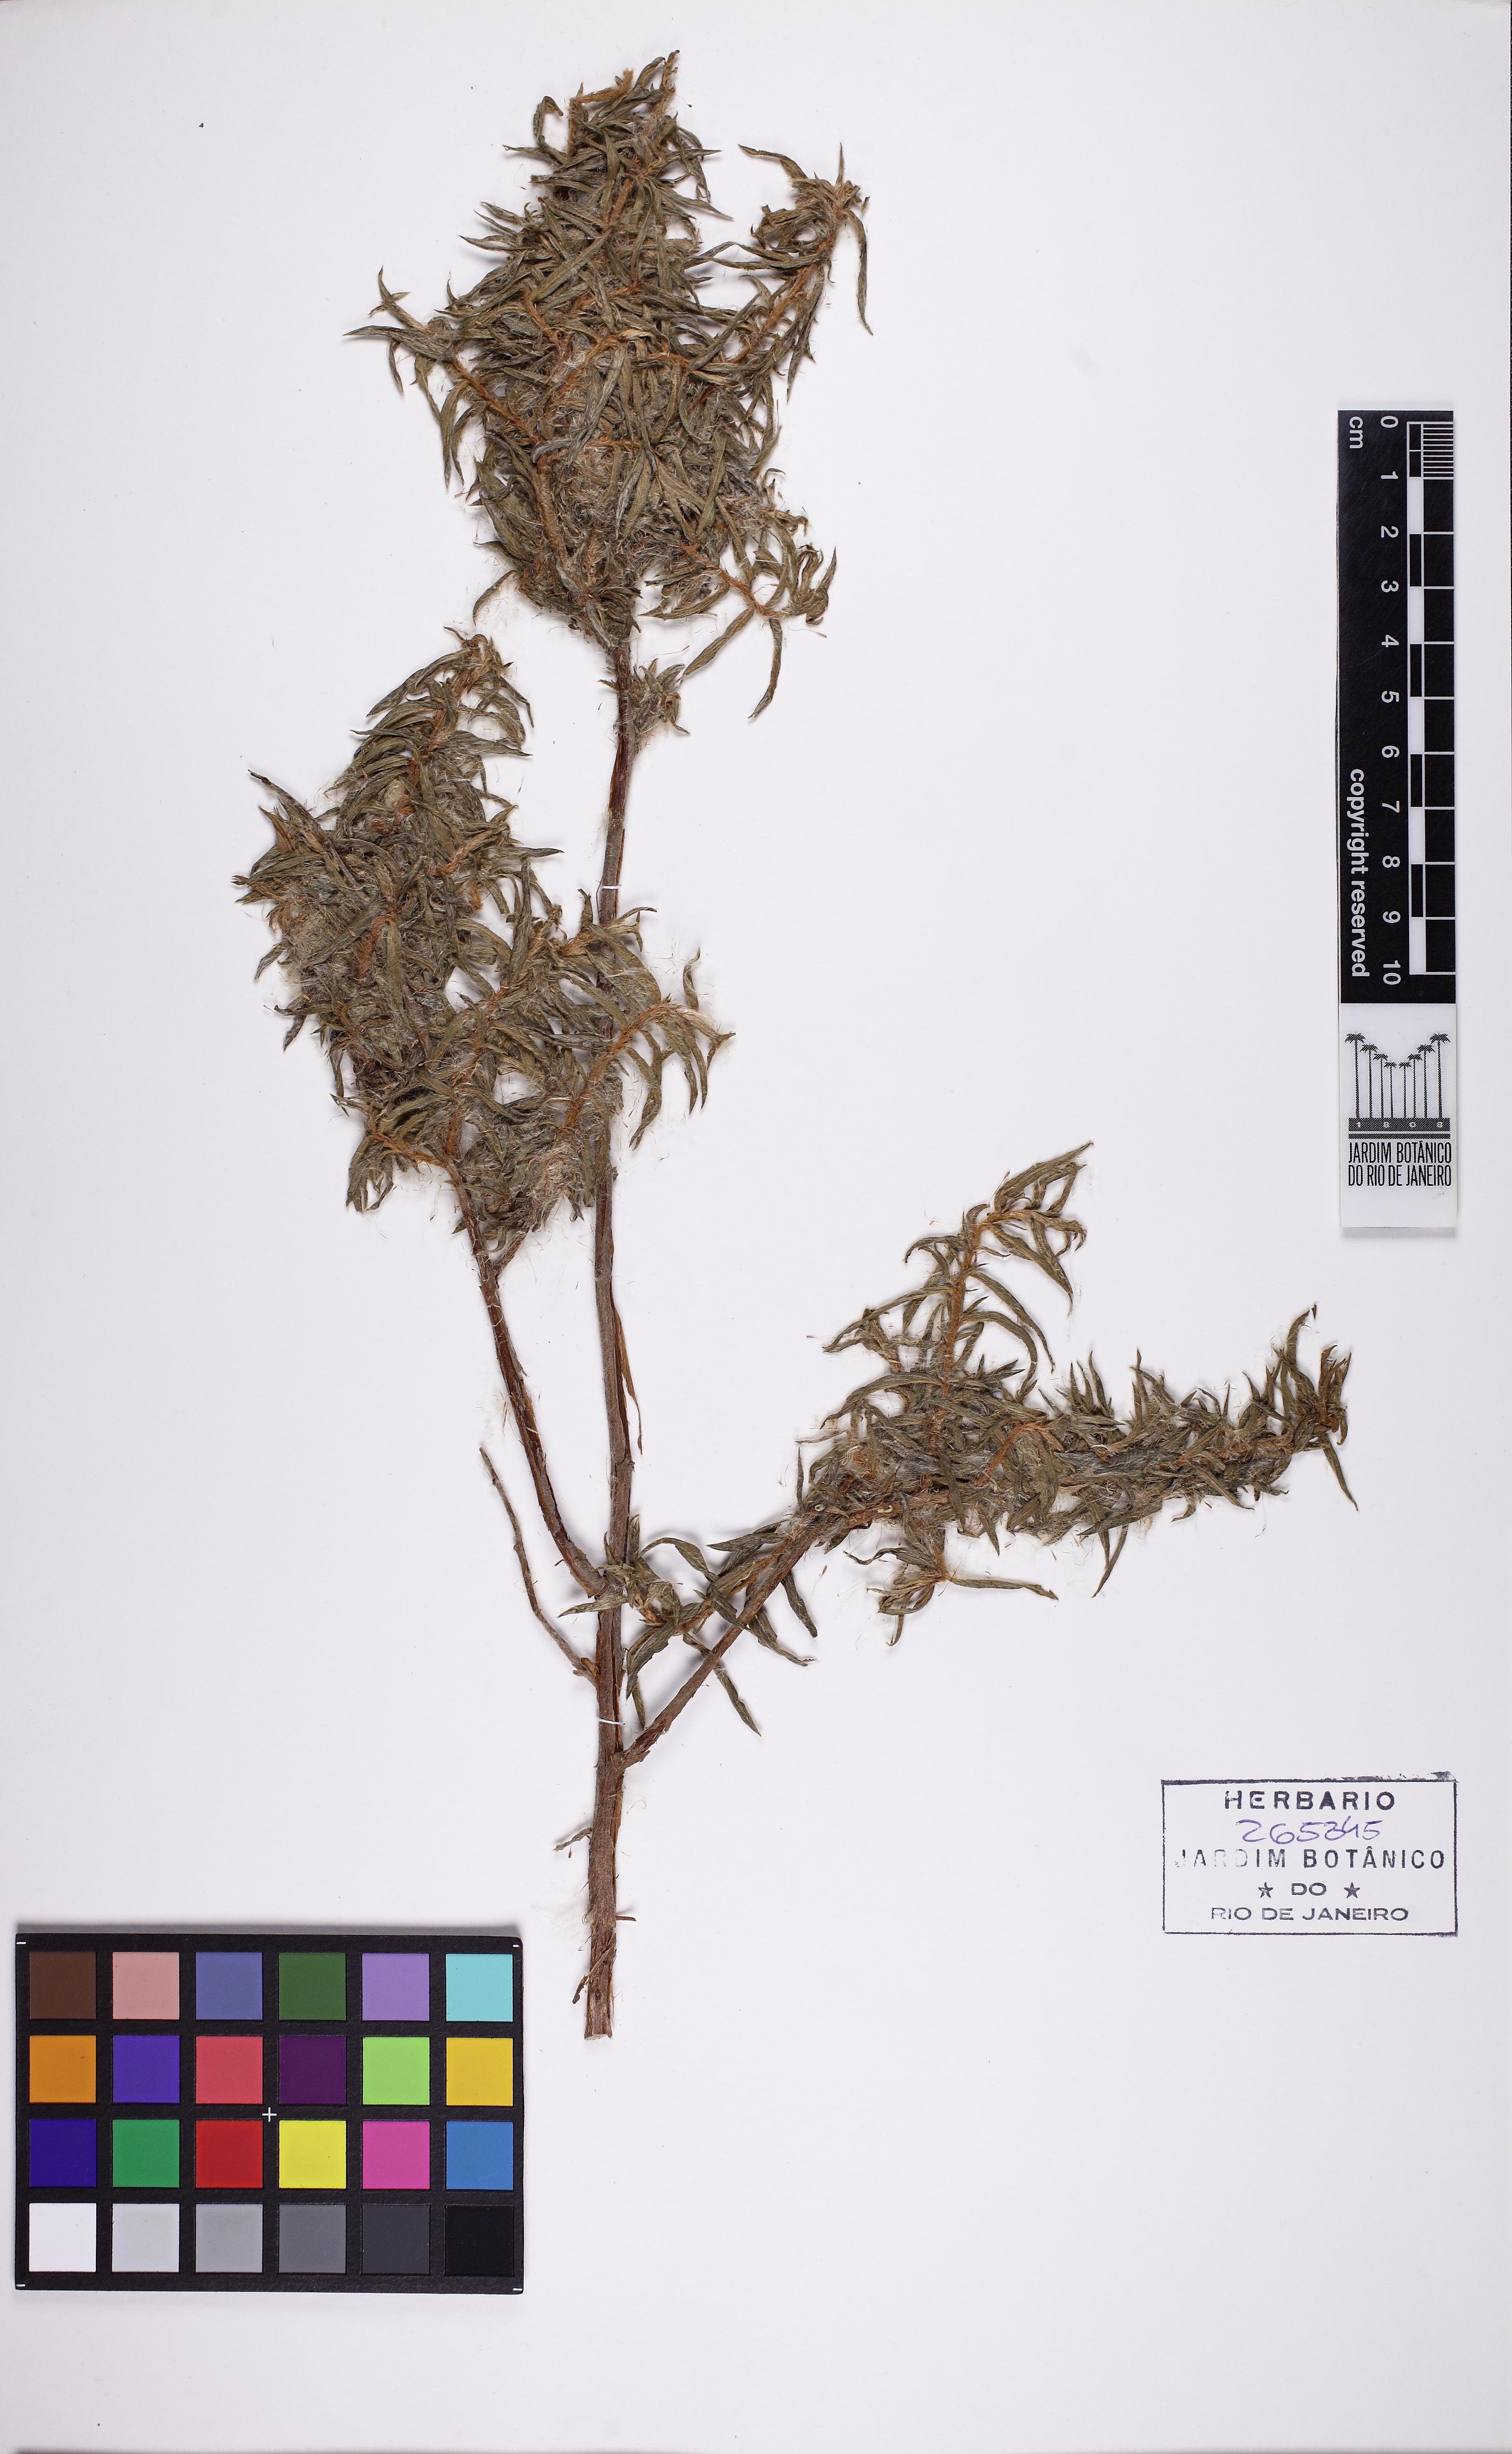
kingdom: Plantae
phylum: Tracheophyta
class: Magnoliopsida
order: Myrtales
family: Onagraceae
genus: Ludwigia
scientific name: Ludwigia sericea
